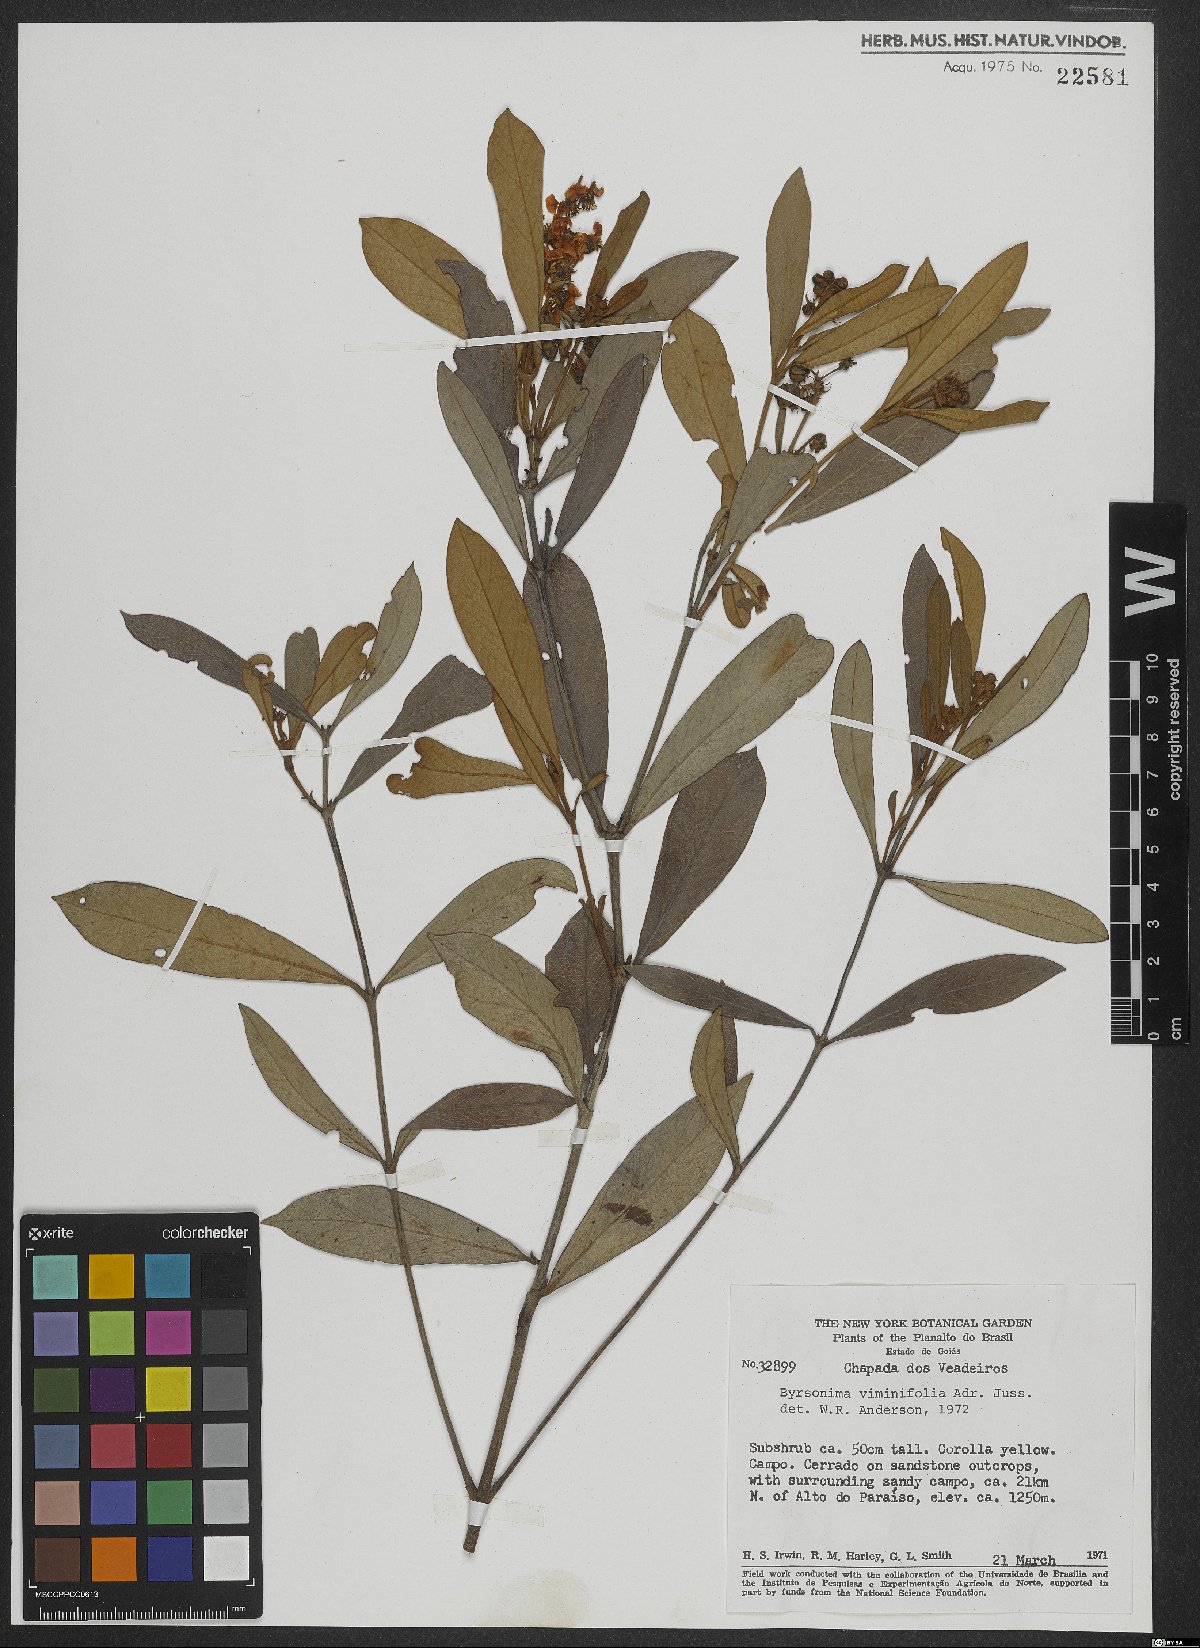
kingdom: Plantae
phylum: Tracheophyta
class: Magnoliopsida
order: Malpighiales
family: Malpighiaceae
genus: Byrsonima
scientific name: Byrsonima viminifolia
